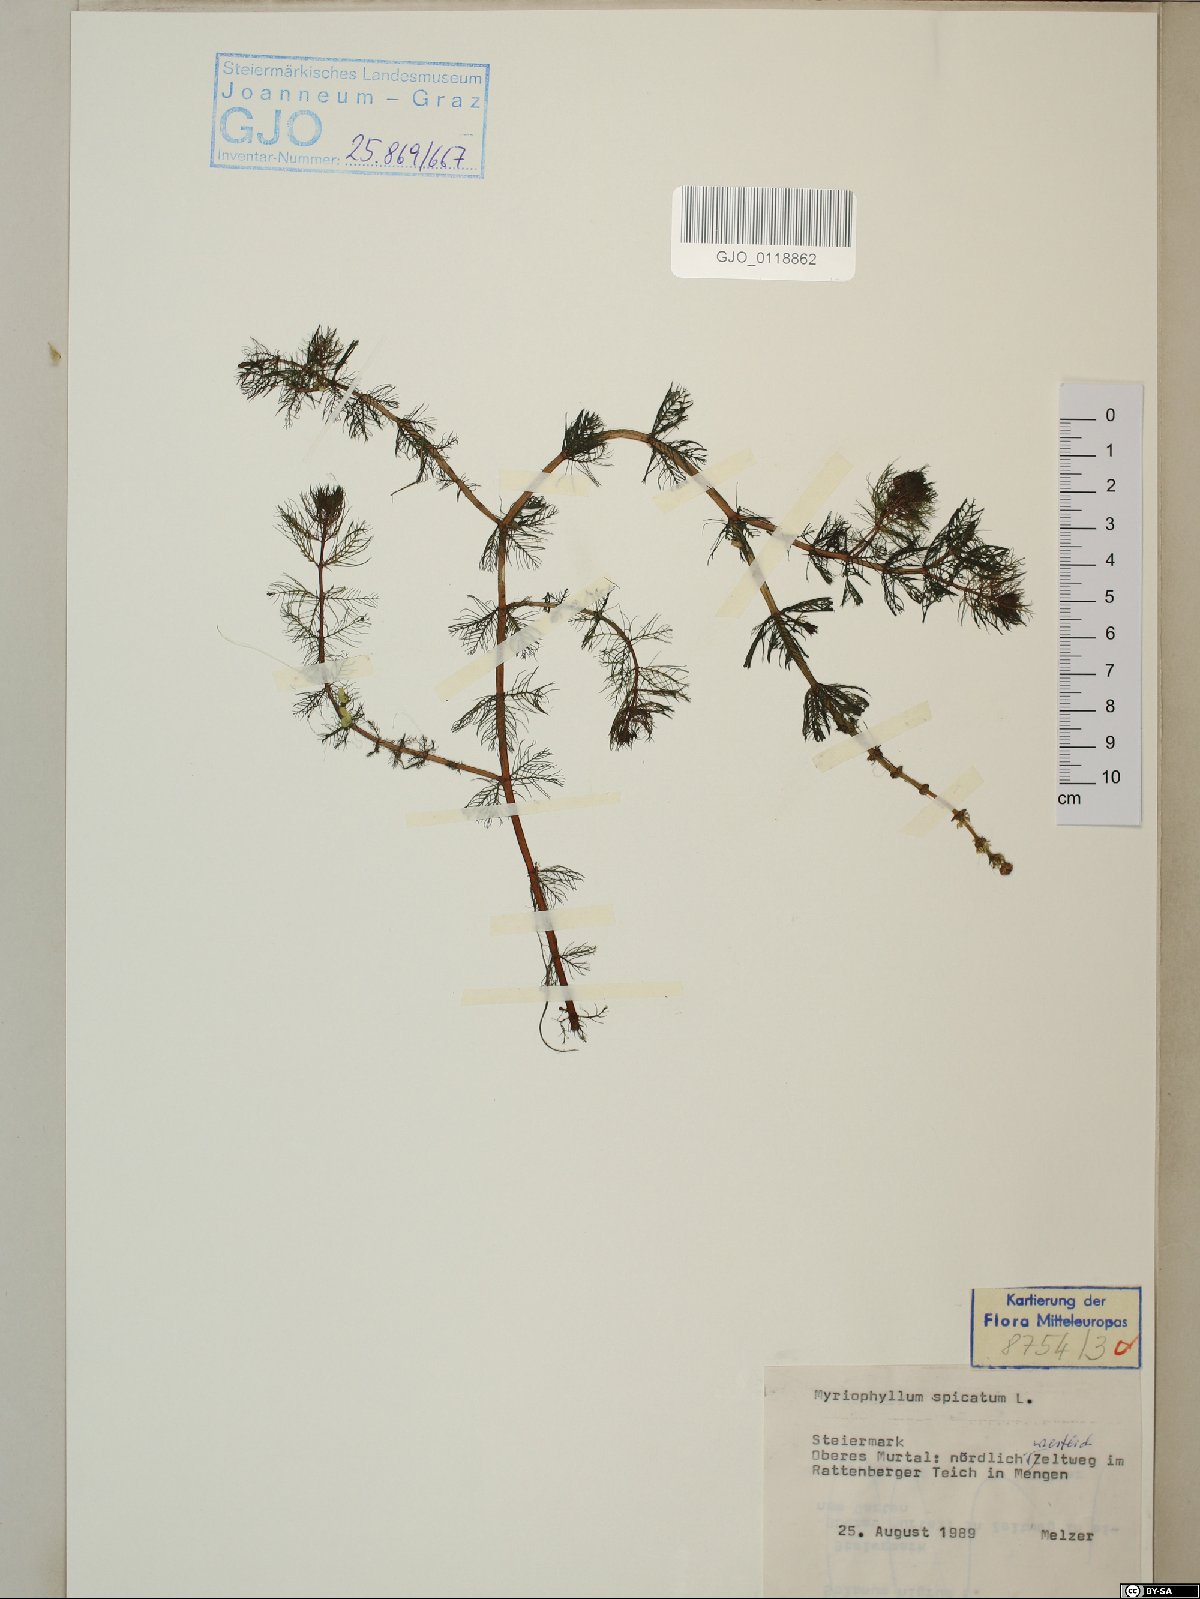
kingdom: Plantae
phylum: Tracheophyta
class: Magnoliopsida
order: Saxifragales
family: Haloragaceae
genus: Myriophyllum
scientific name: Myriophyllum spicatum
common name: Spiked water-milfoil
